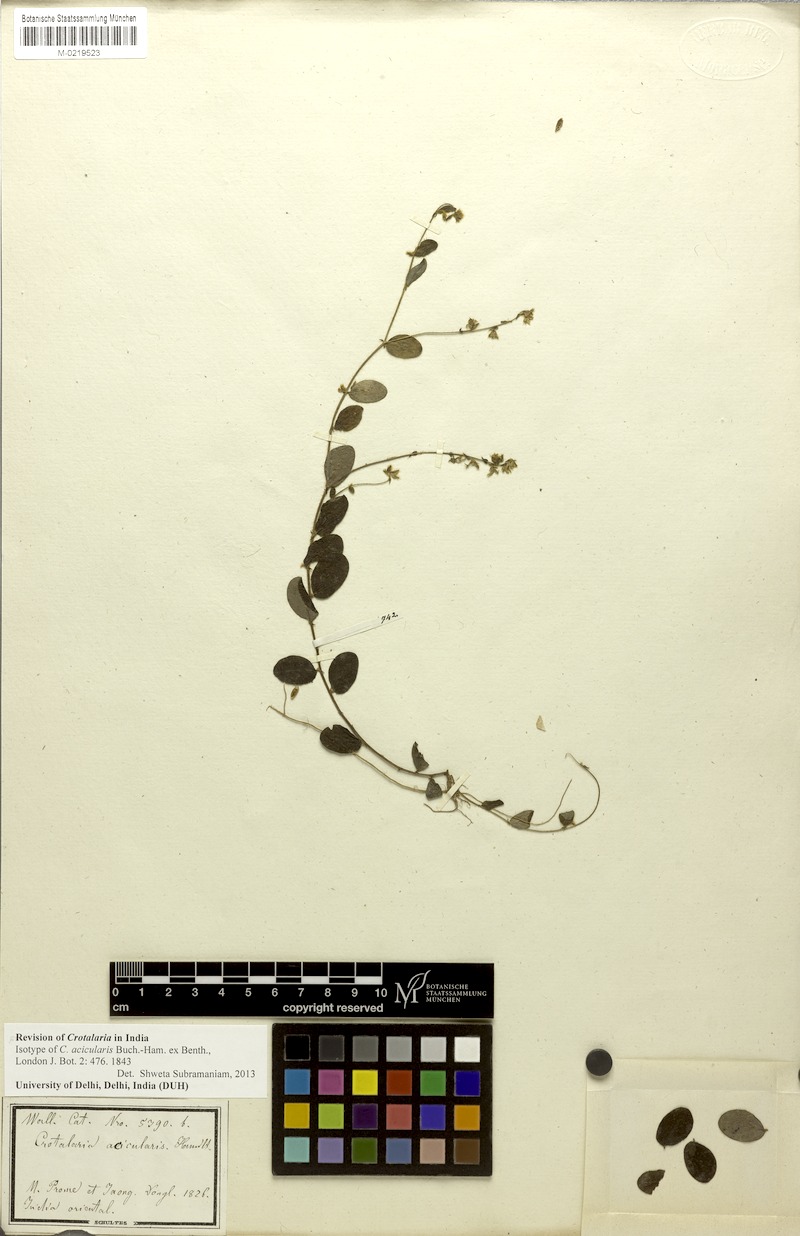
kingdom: Plantae
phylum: Tracheophyta
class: Magnoliopsida
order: Fabales
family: Fabaceae
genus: Crotalaria
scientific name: Crotalaria acicularis
